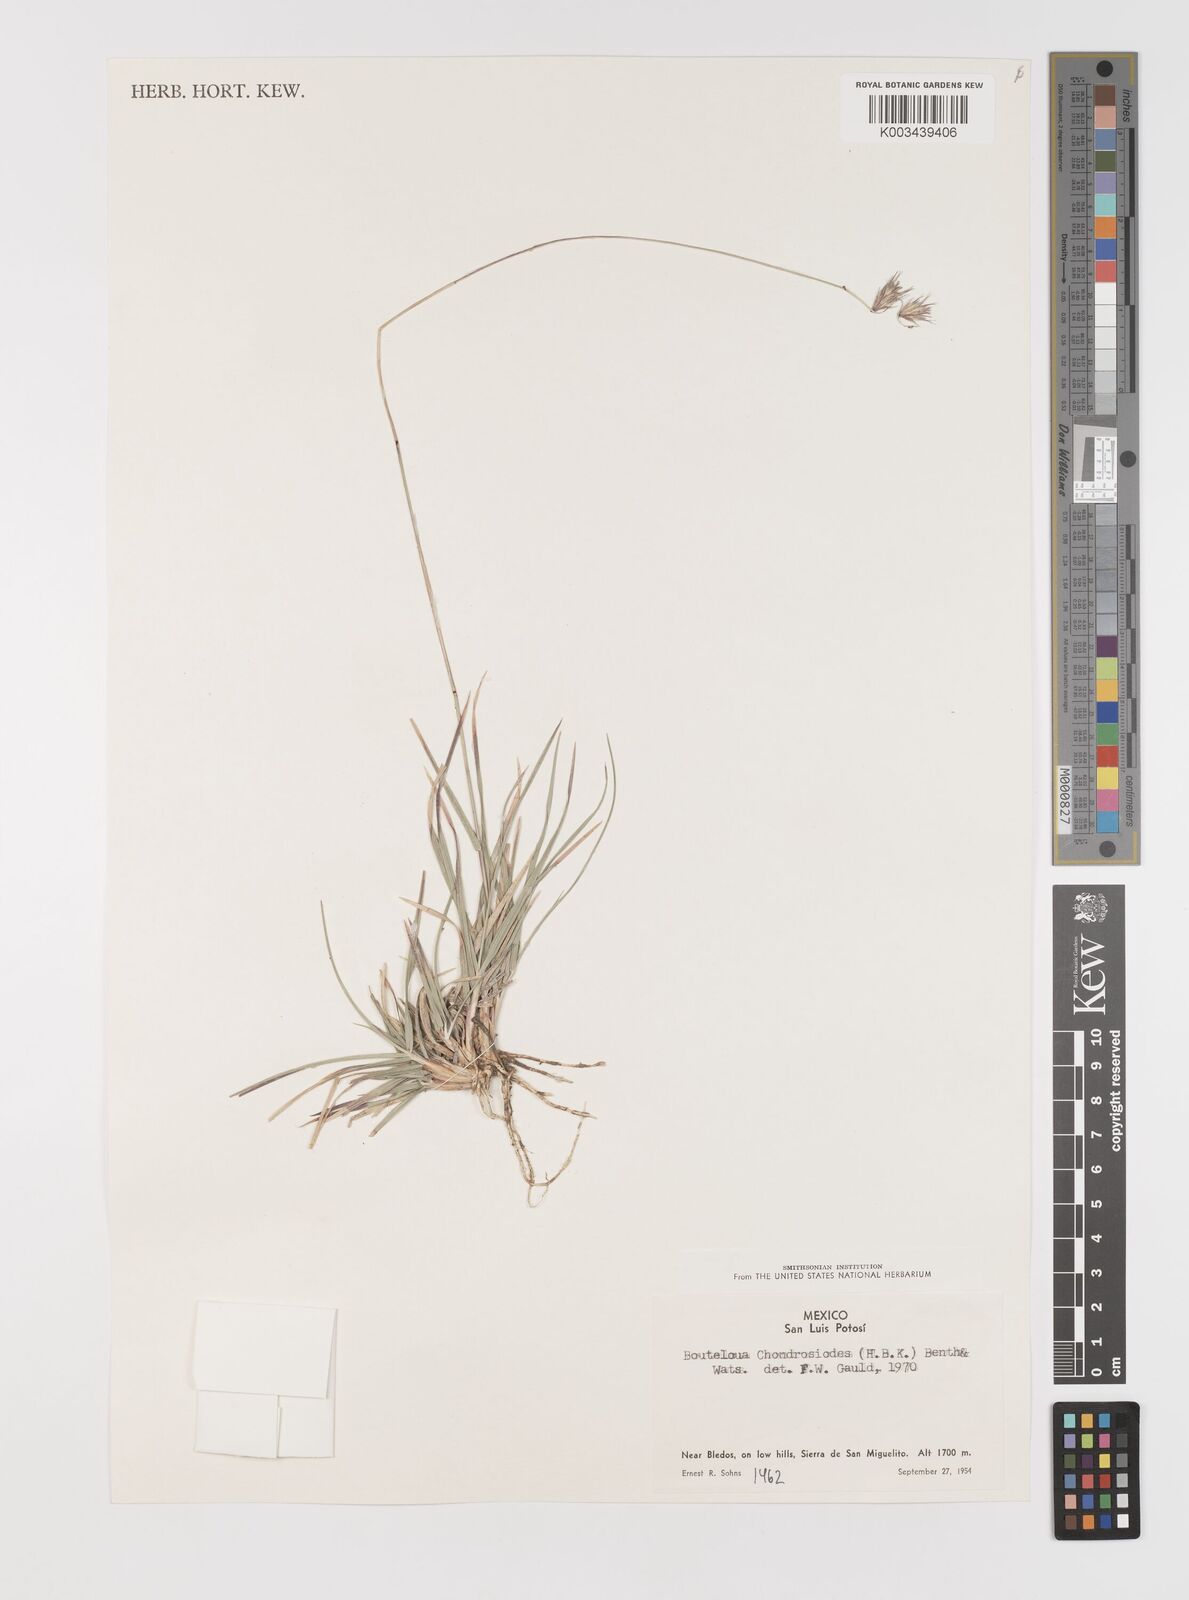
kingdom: Plantae
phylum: Tracheophyta
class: Liliopsida
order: Poales
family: Poaceae
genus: Bouteloua
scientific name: Bouteloua chondrosioides
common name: Sprucetop grama
